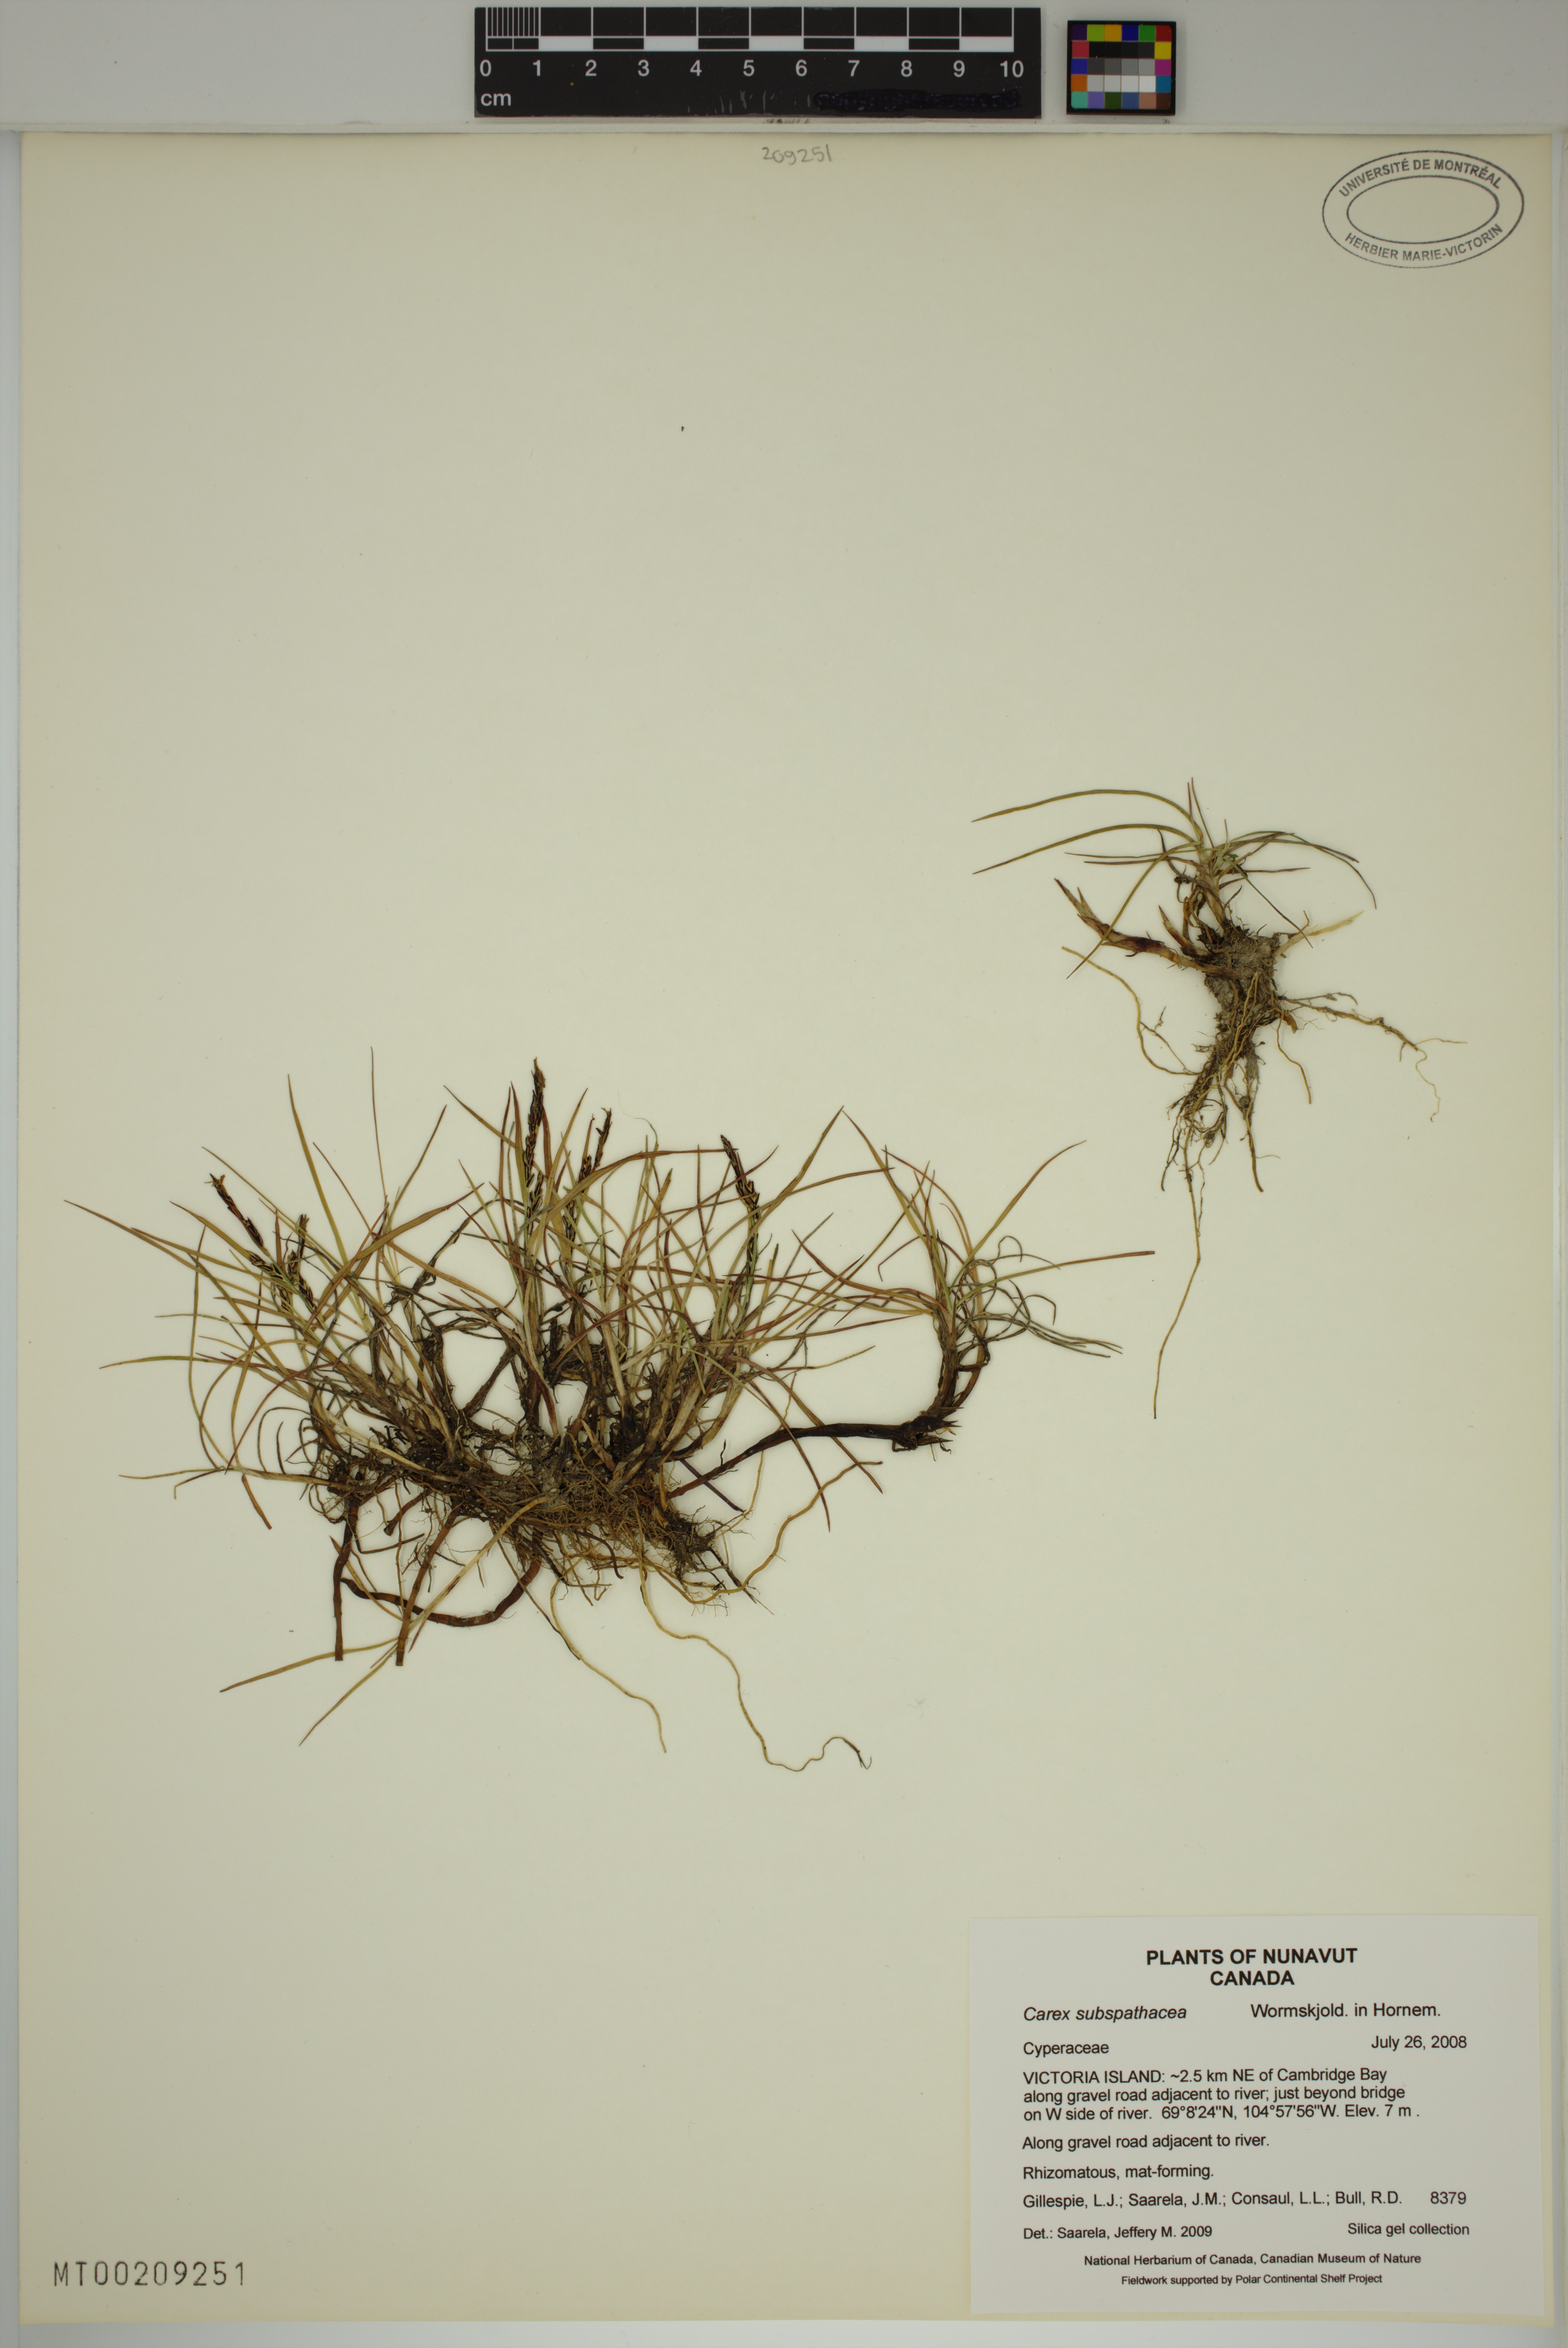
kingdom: Plantae
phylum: Tracheophyta
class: Liliopsida
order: Poales
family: Cyperaceae
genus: Carex
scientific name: Carex subspathacea
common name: Hoppner's sedge
